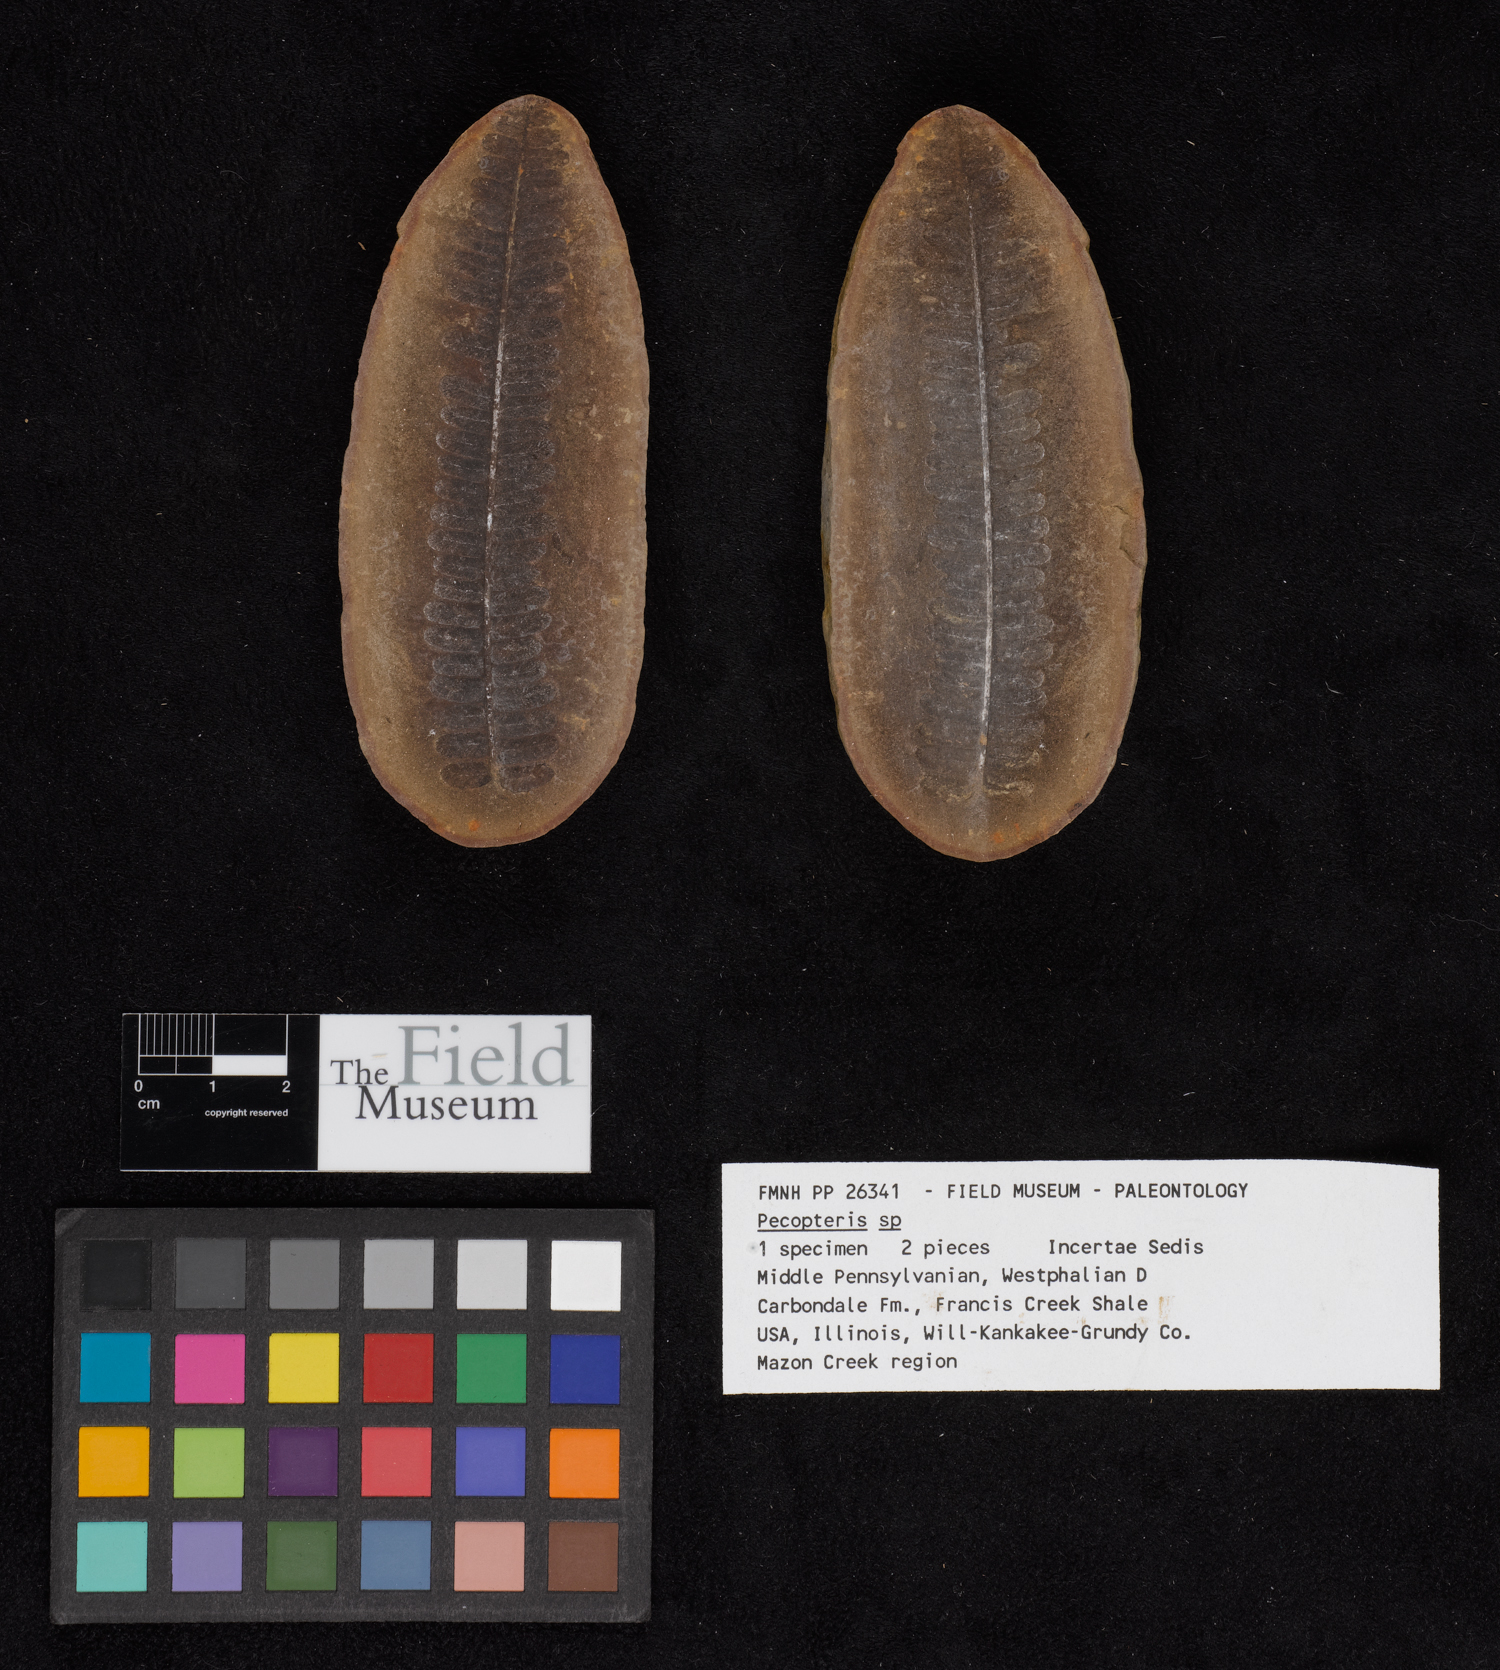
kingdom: Plantae
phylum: Tracheophyta
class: Polypodiopsida
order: Marattiales
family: Asterothecaceae
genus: Pecopteris
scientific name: Pecopteris
